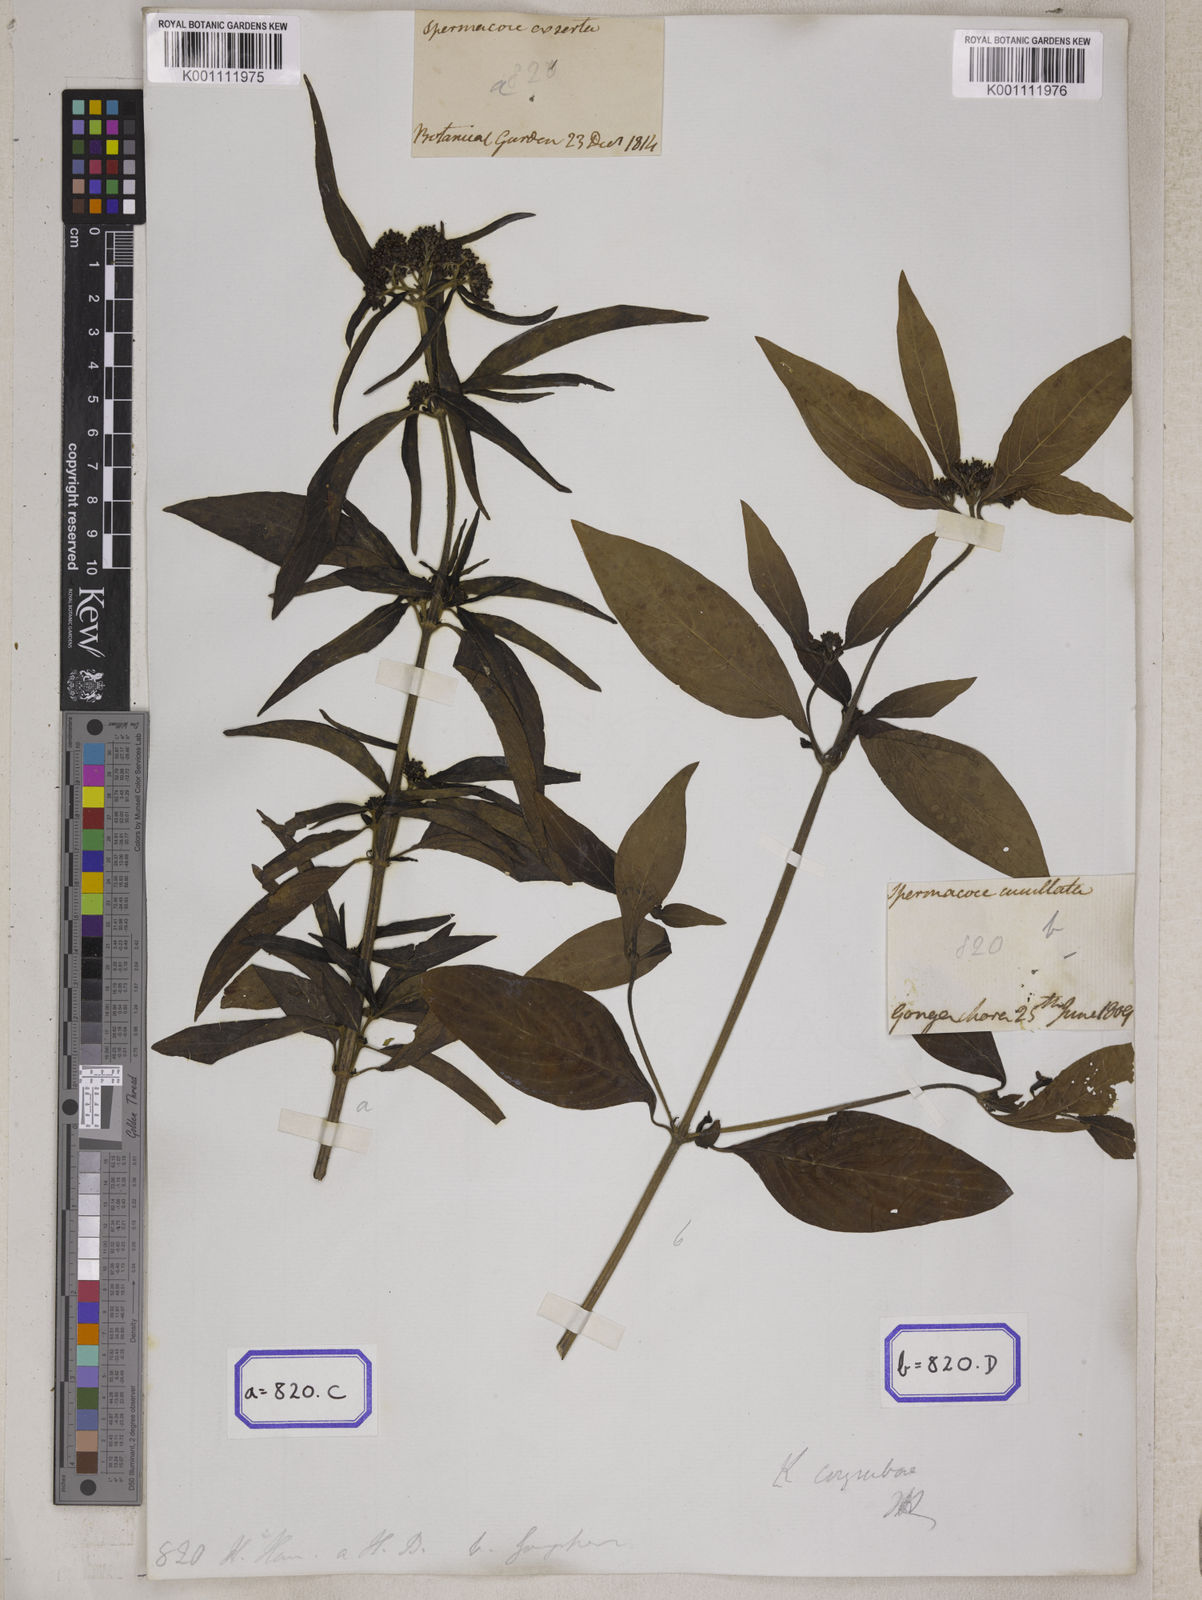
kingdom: Plantae
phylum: Tracheophyta
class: Magnoliopsida
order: Gentianales
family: Rubiaceae
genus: Knoxia
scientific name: Knoxia
